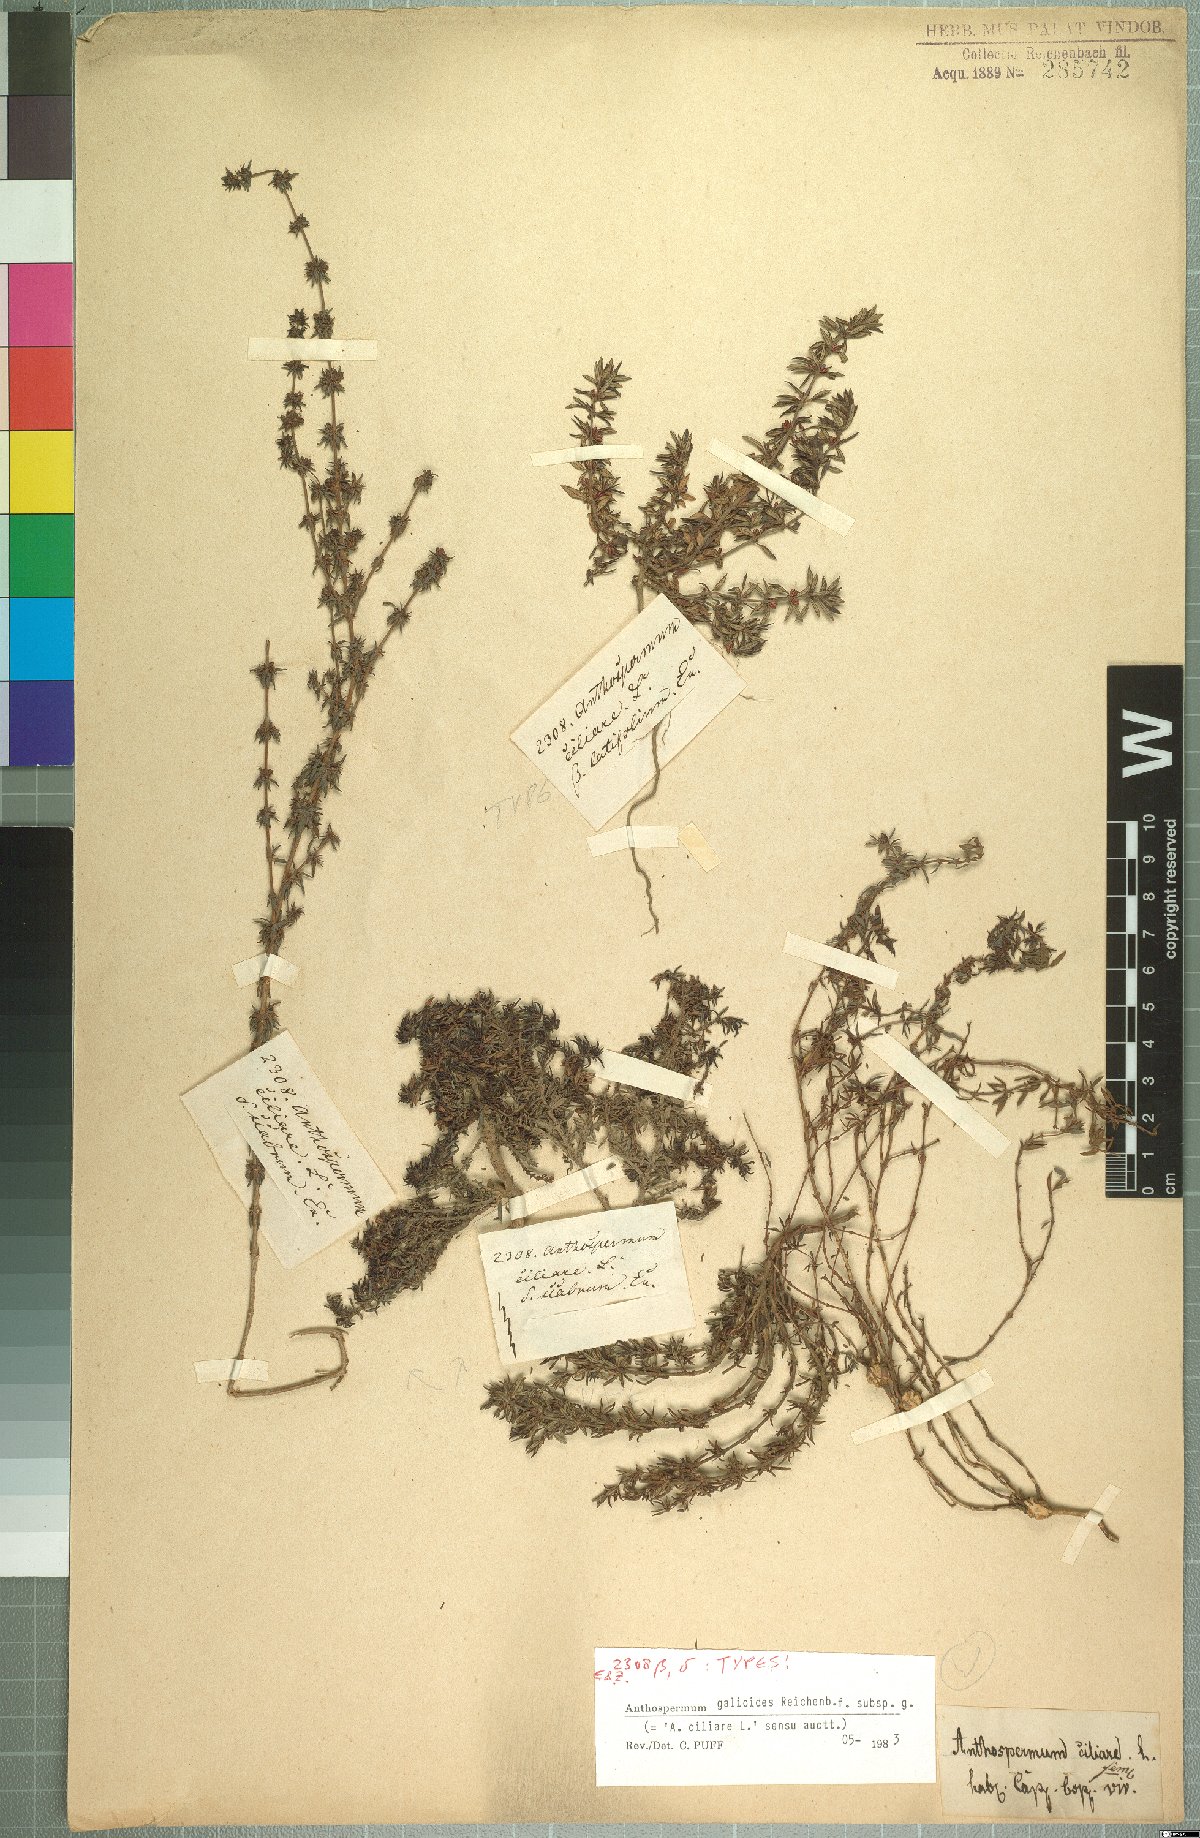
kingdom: Plantae
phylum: Tracheophyta
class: Magnoliopsida
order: Gentianales
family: Rubiaceae
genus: Anthospermum
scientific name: Anthospermum galioides
